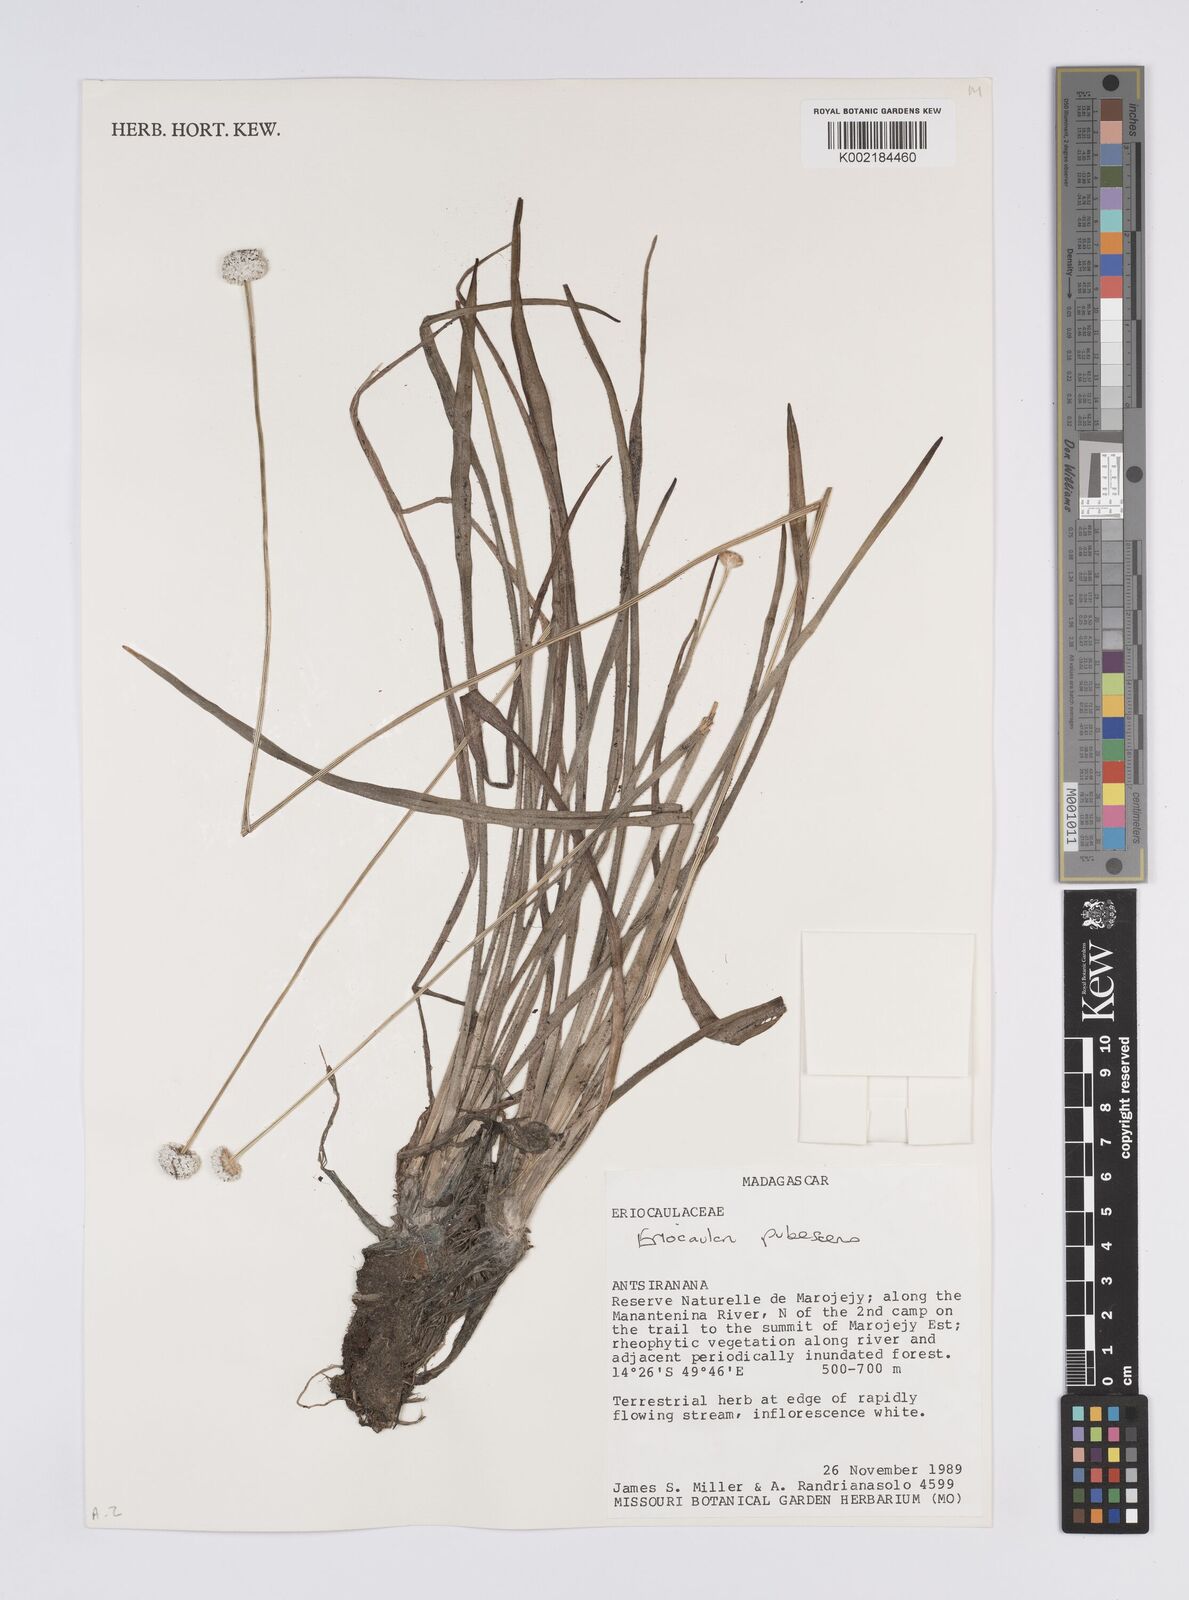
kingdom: Plantae
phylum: Tracheophyta
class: Liliopsida
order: Poales
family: Eriocaulaceae
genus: Mesanthemum
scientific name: Mesanthemum pubescens
